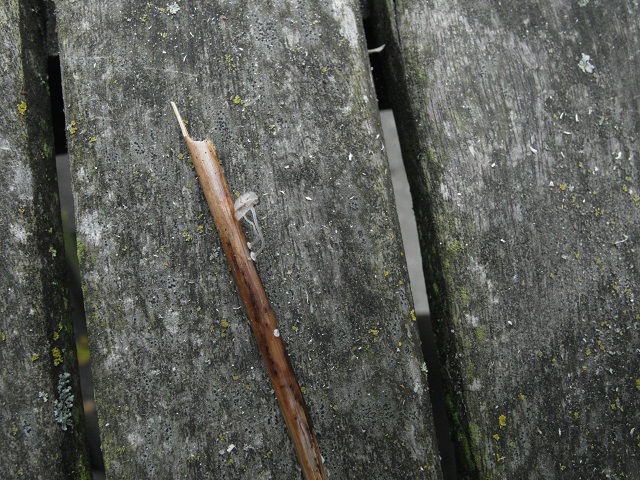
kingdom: Fungi
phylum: Basidiomycota
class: Agaricomycetes
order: Agaricales
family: Mycenaceae
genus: Mycena
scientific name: Mycena bulbosa
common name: siv-huesvamp
